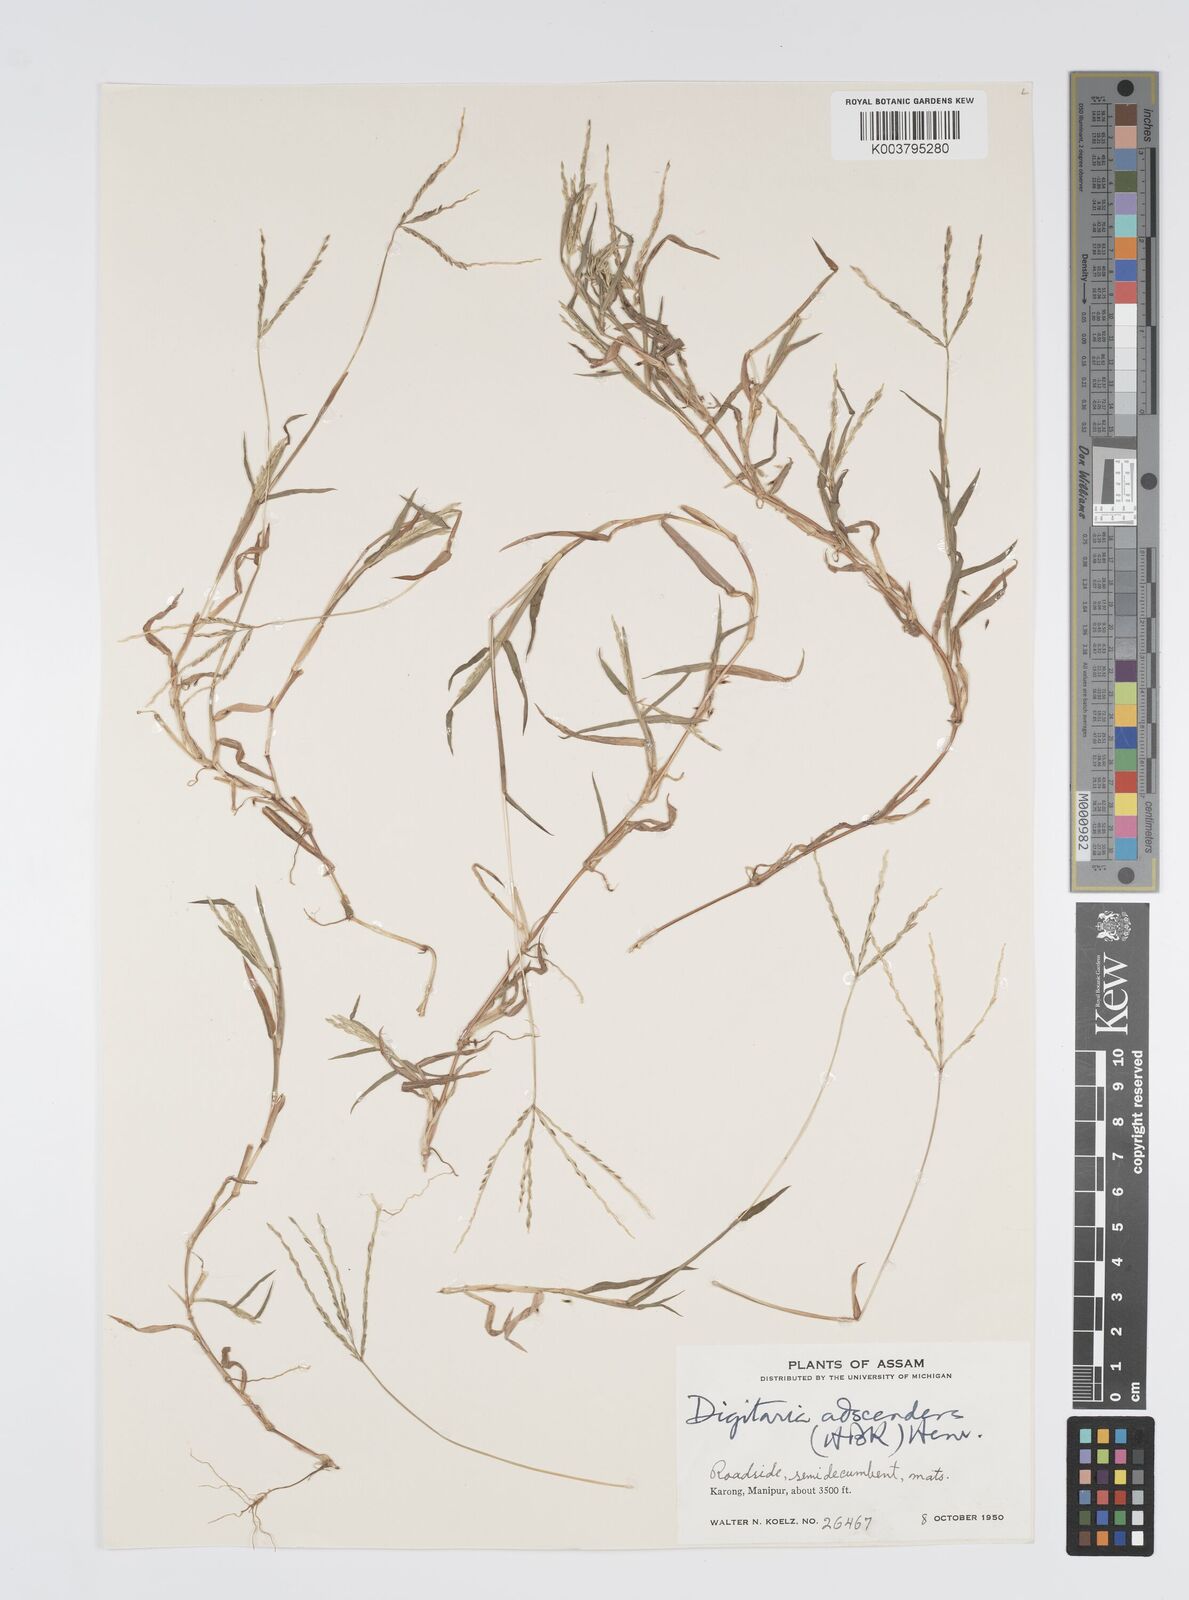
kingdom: Plantae
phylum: Tracheophyta
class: Liliopsida
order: Poales
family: Poaceae
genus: Digitaria
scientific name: Digitaria ciliaris
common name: Tropical finger-grass
